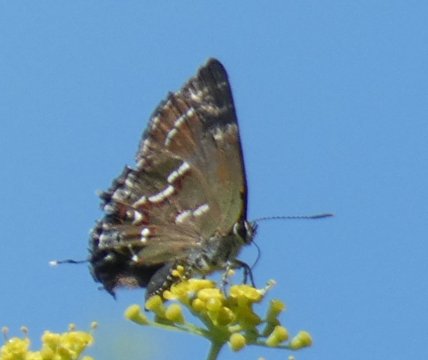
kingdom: Animalia
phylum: Arthropoda
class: Insecta
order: Lepidoptera
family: Lycaenidae
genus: Mitoura
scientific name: Mitoura gryneus
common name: Juniper Hairstreak
